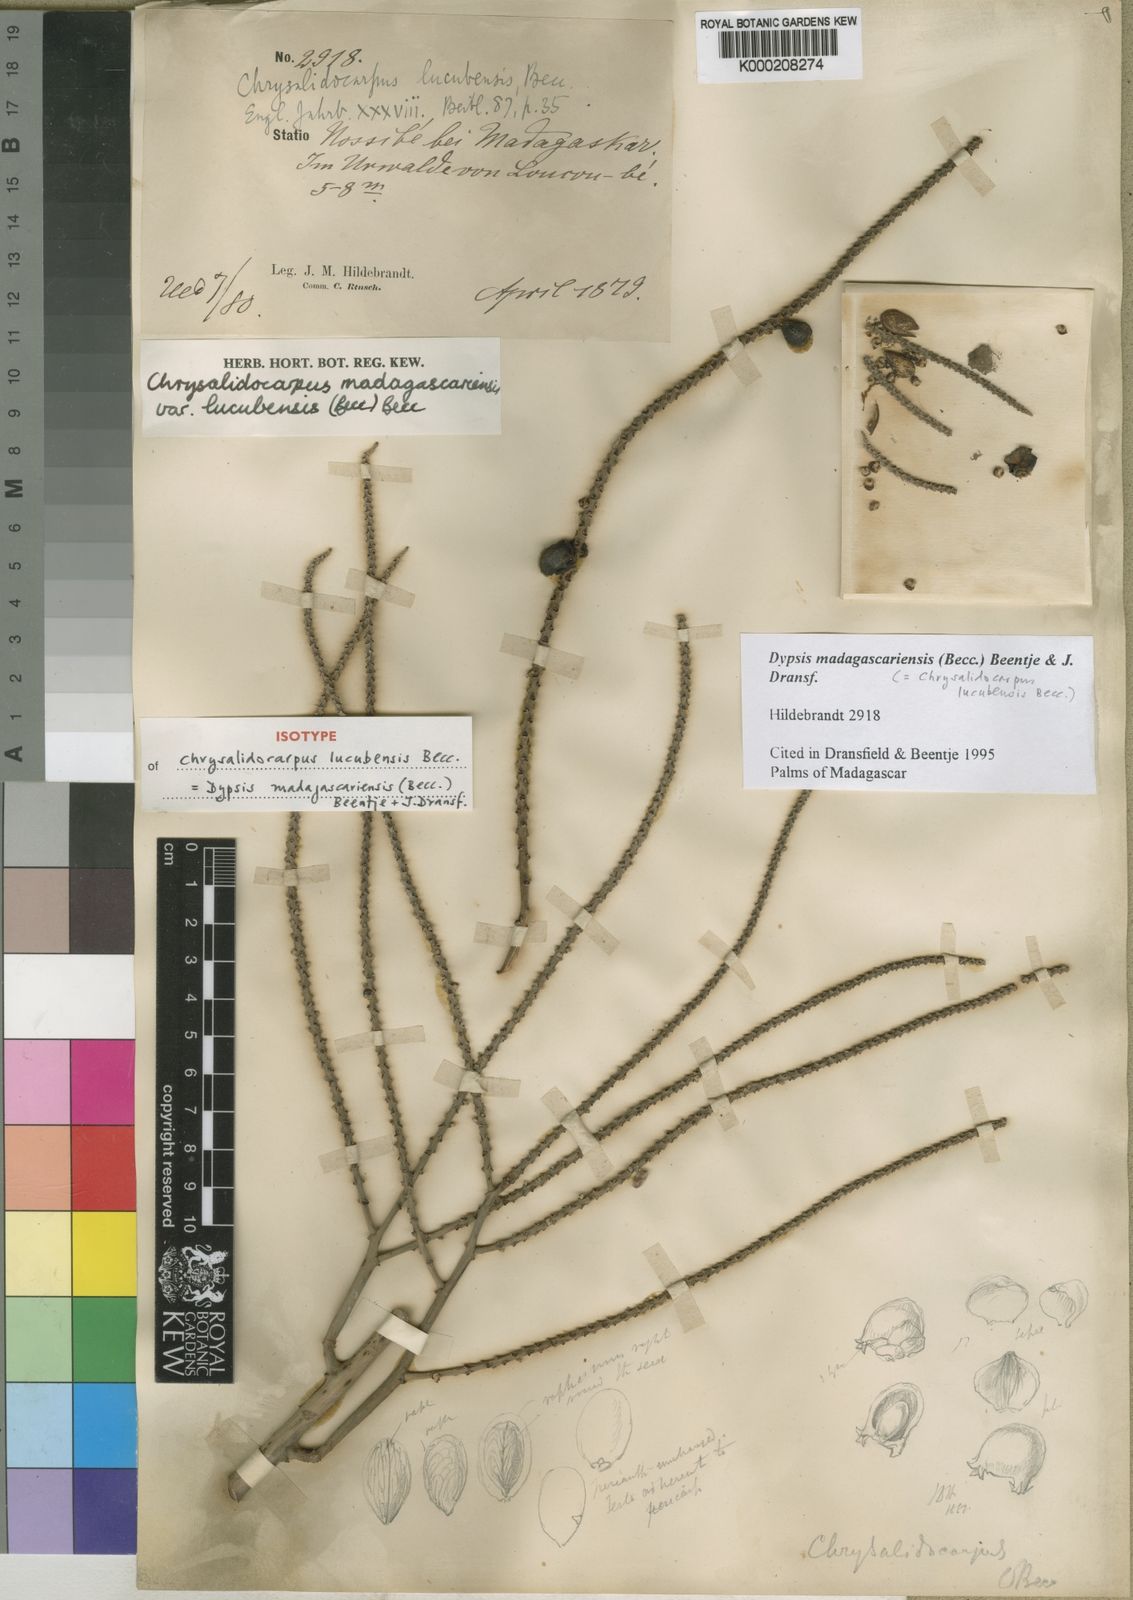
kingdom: Plantae
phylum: Tracheophyta
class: Liliopsida
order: Arecales
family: Arecaceae
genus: Dypsis
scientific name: Dypsis madagascariensis
